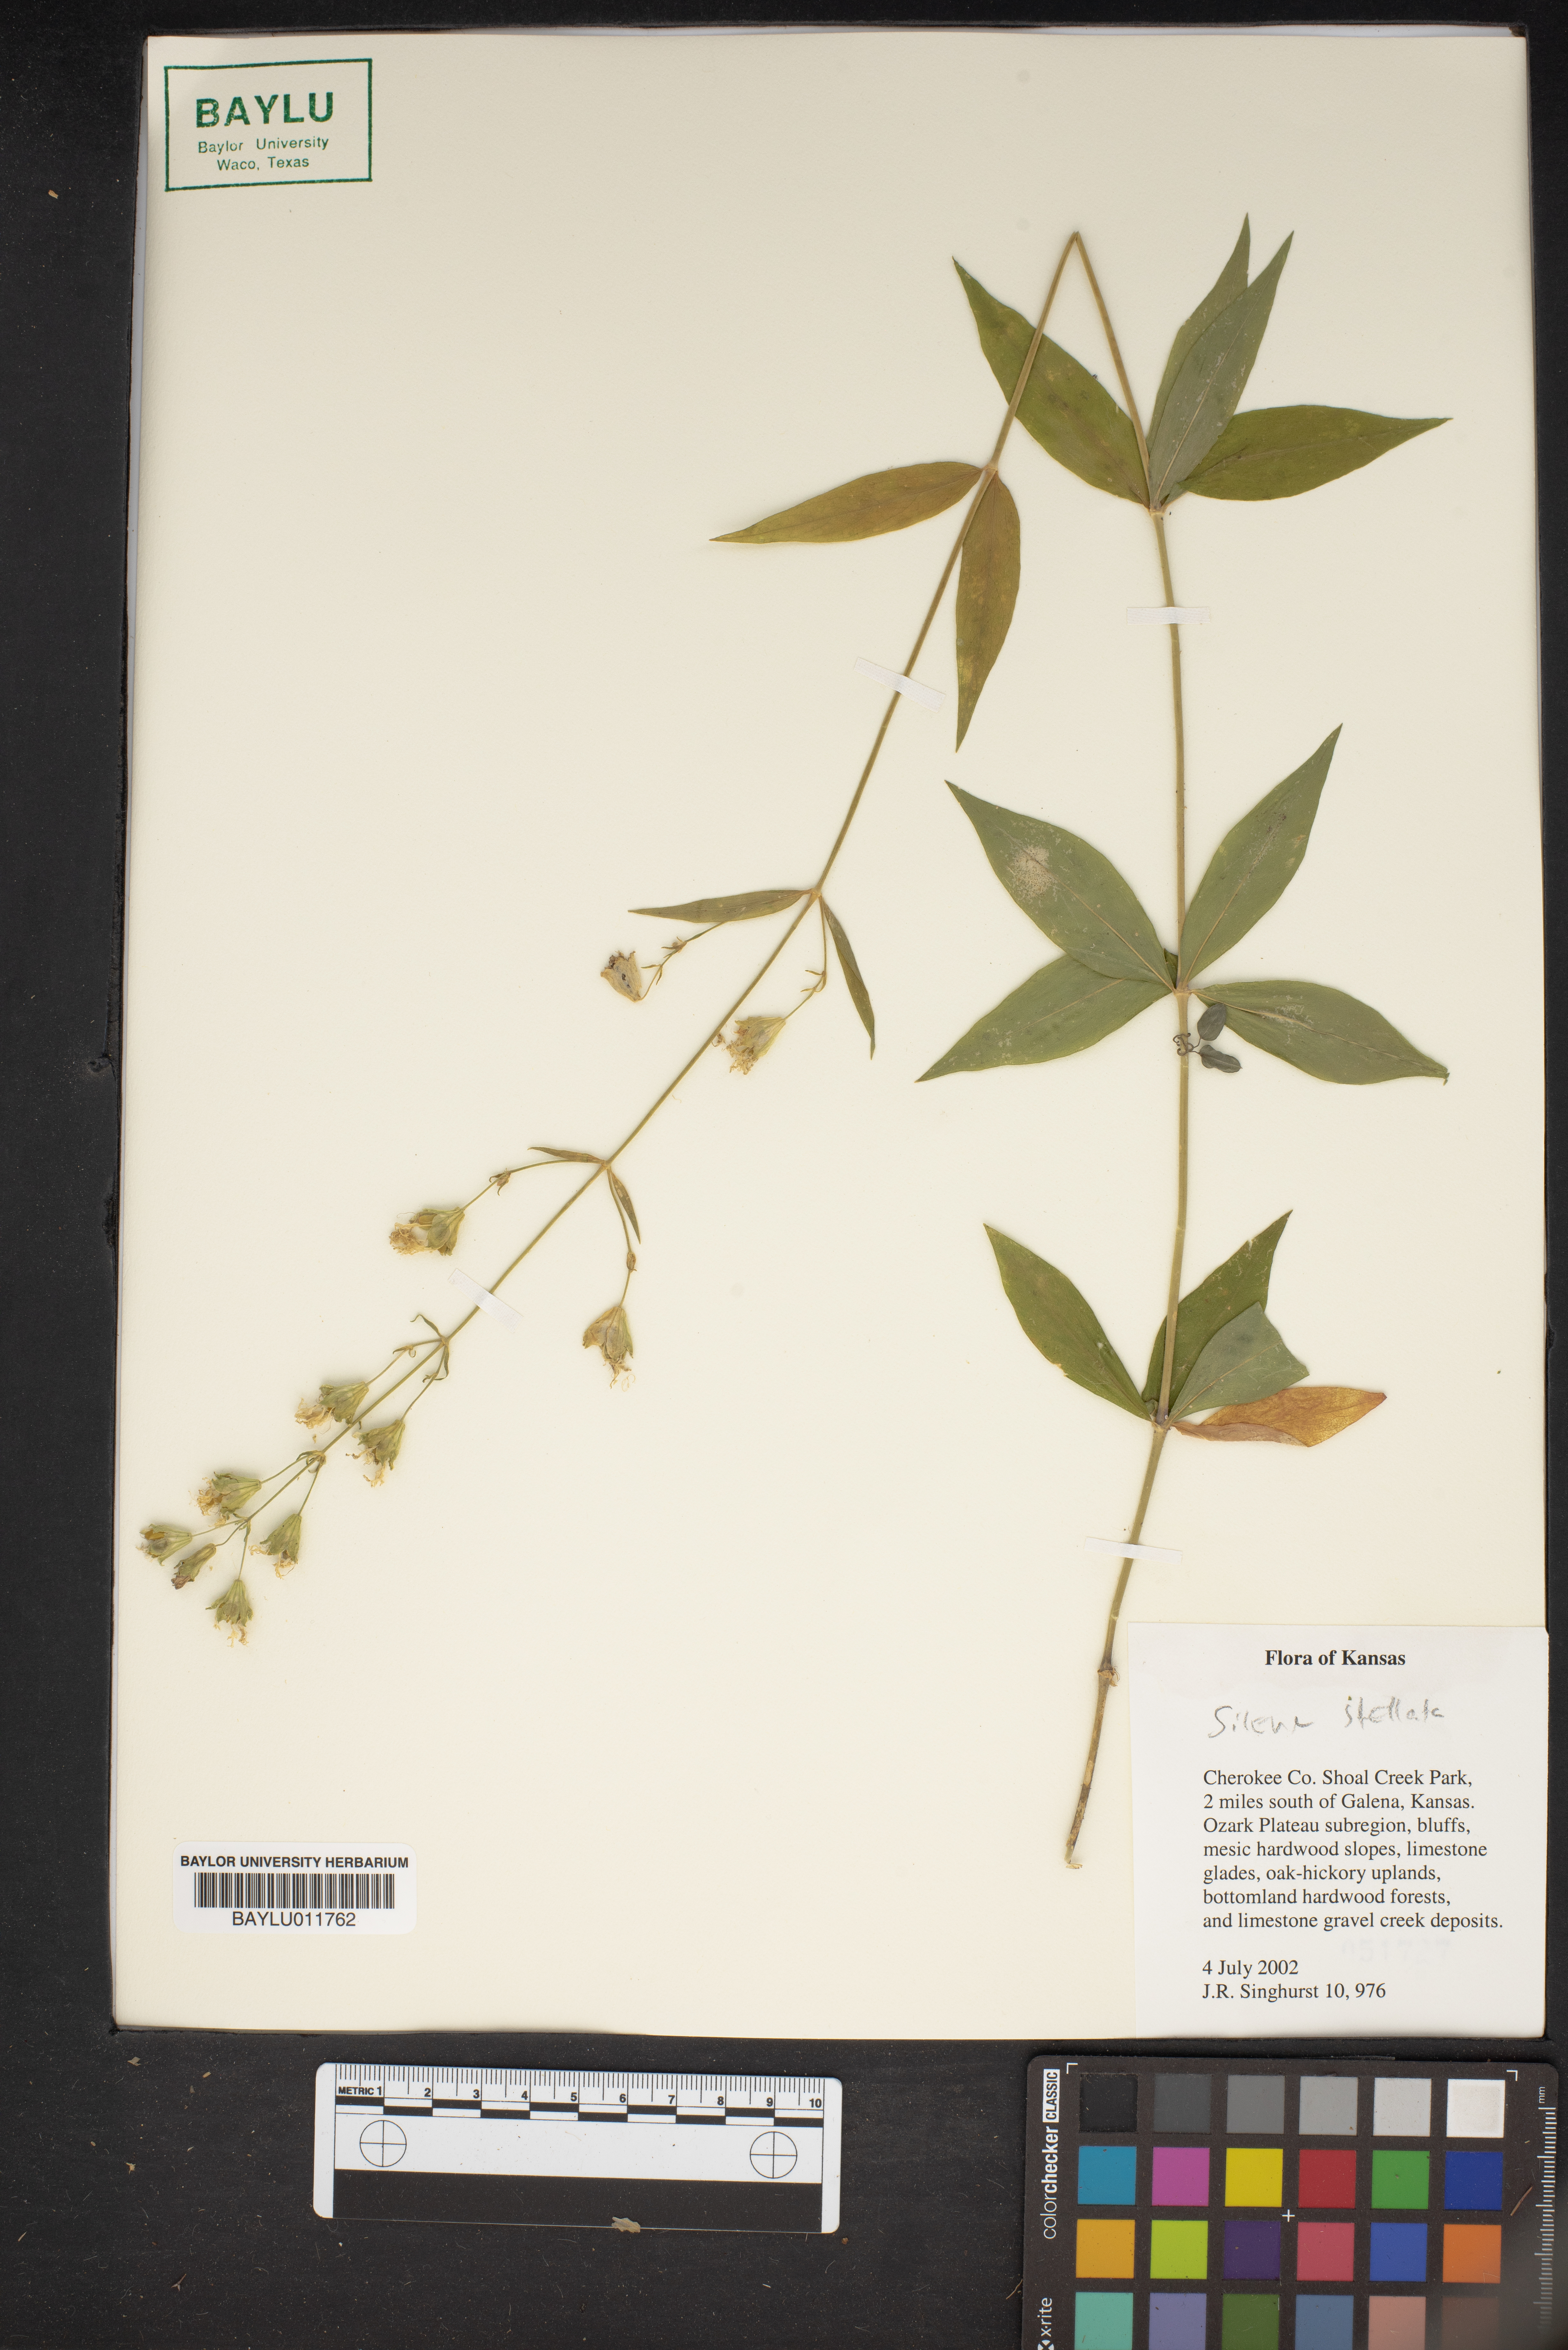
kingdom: Plantae
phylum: Tracheophyta
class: Magnoliopsida
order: Caryophyllales
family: Caryophyllaceae
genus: Silene
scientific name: Silene stellata
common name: Starry campion
